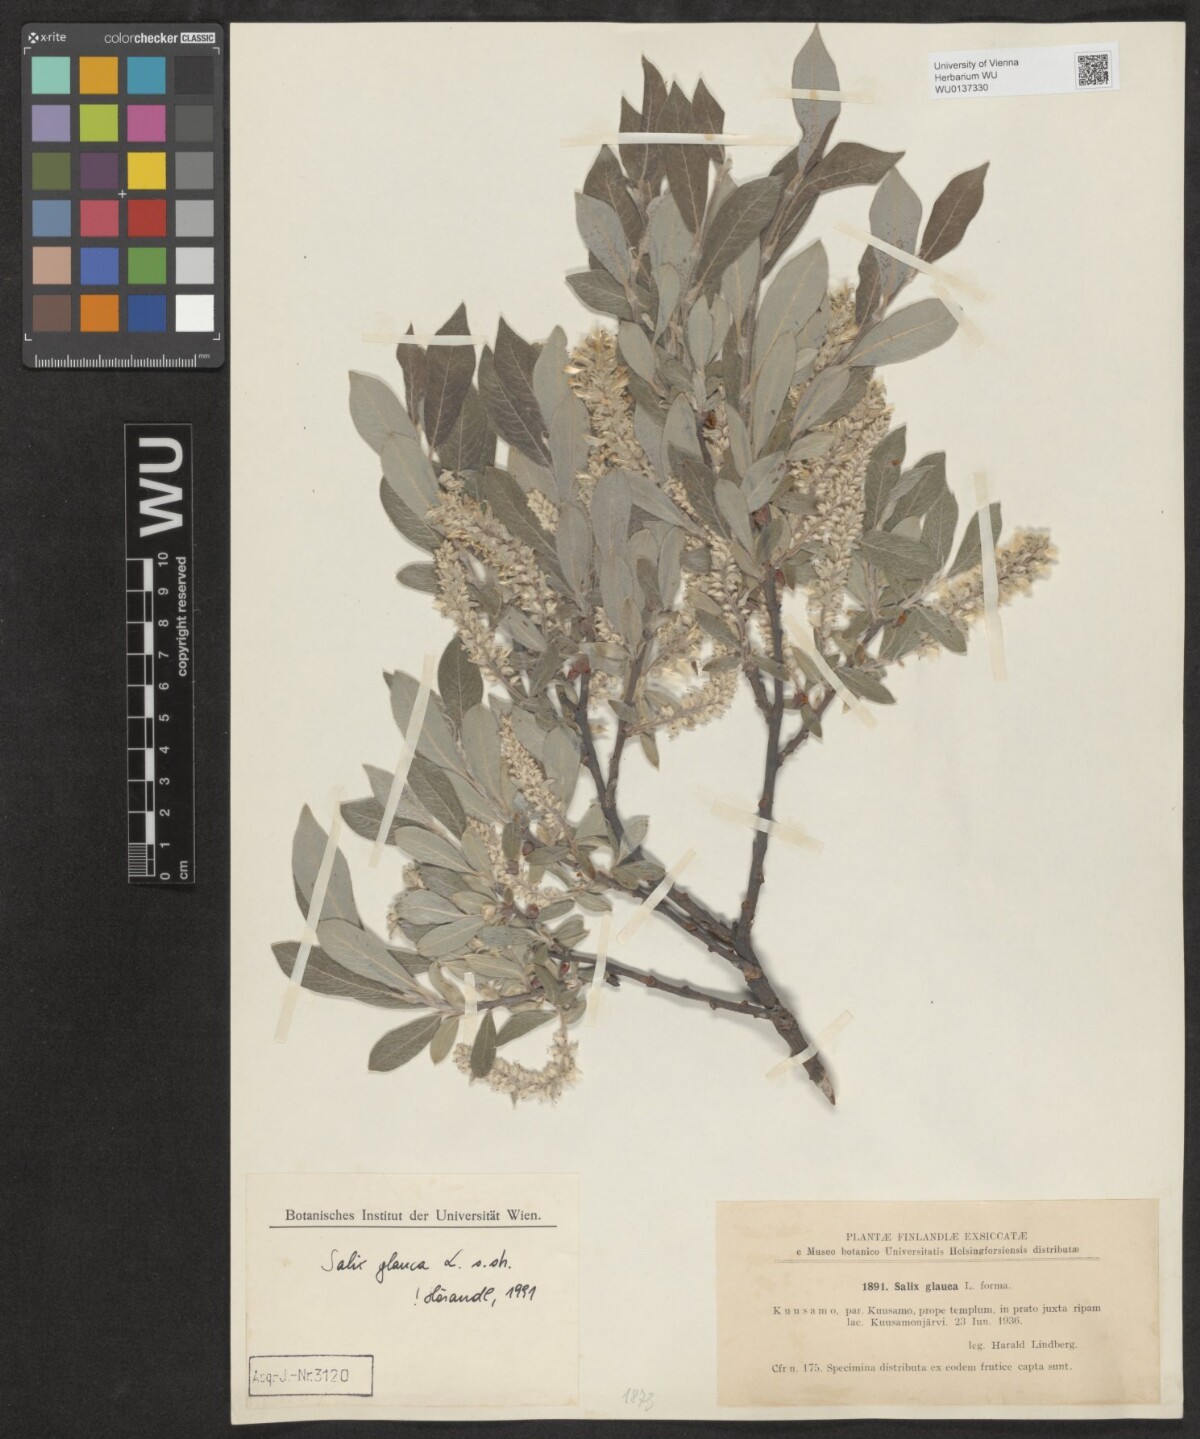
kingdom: Plantae
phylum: Tracheophyta
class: Magnoliopsida
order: Malpighiales
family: Salicaceae
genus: Salix
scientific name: Salix glauca
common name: Glaucous willow
